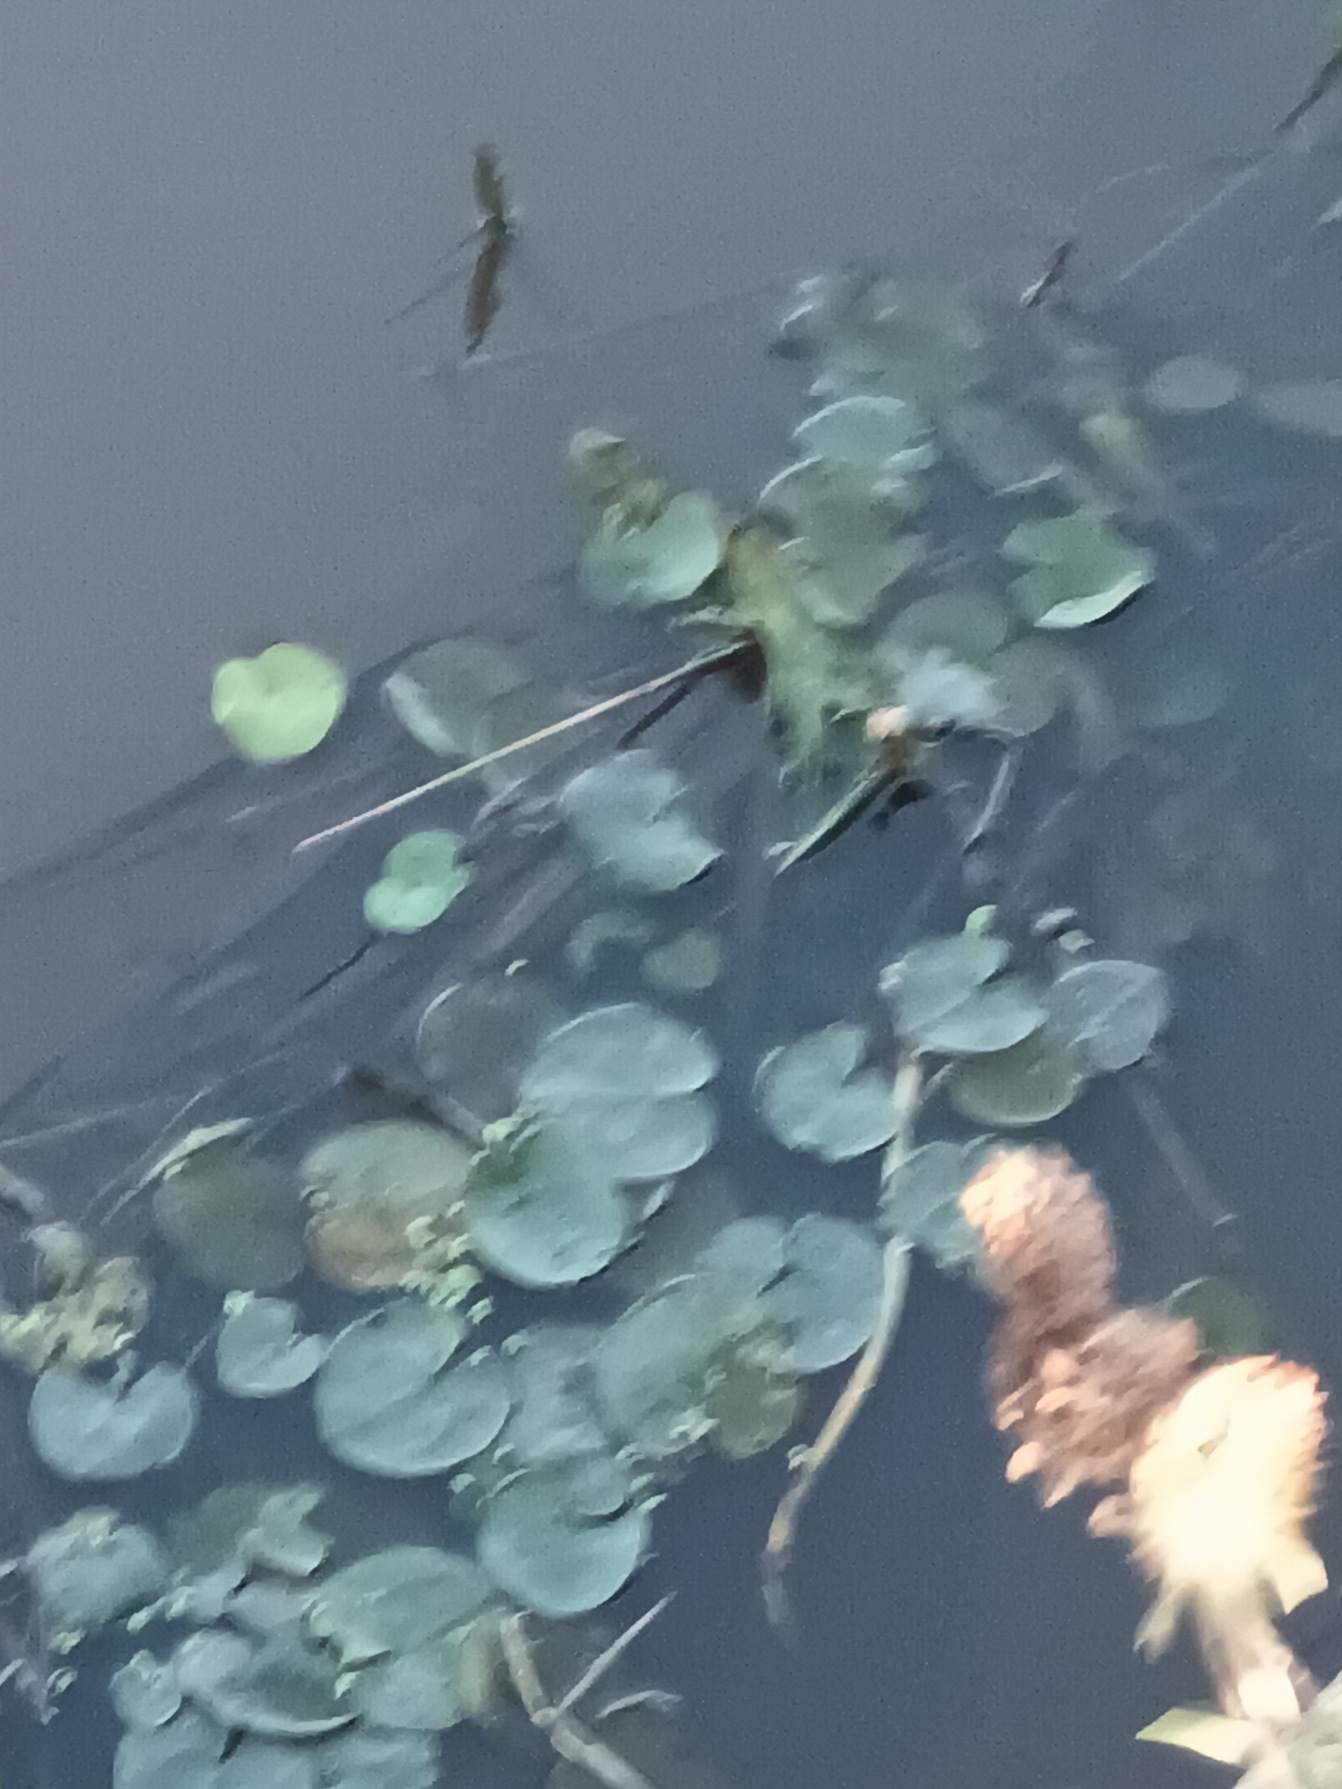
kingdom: Plantae
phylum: Tracheophyta
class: Liliopsida
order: Alismatales
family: Hydrocharitaceae
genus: Hydrocharis
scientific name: Hydrocharis morsus-ranae
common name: Frøbid
